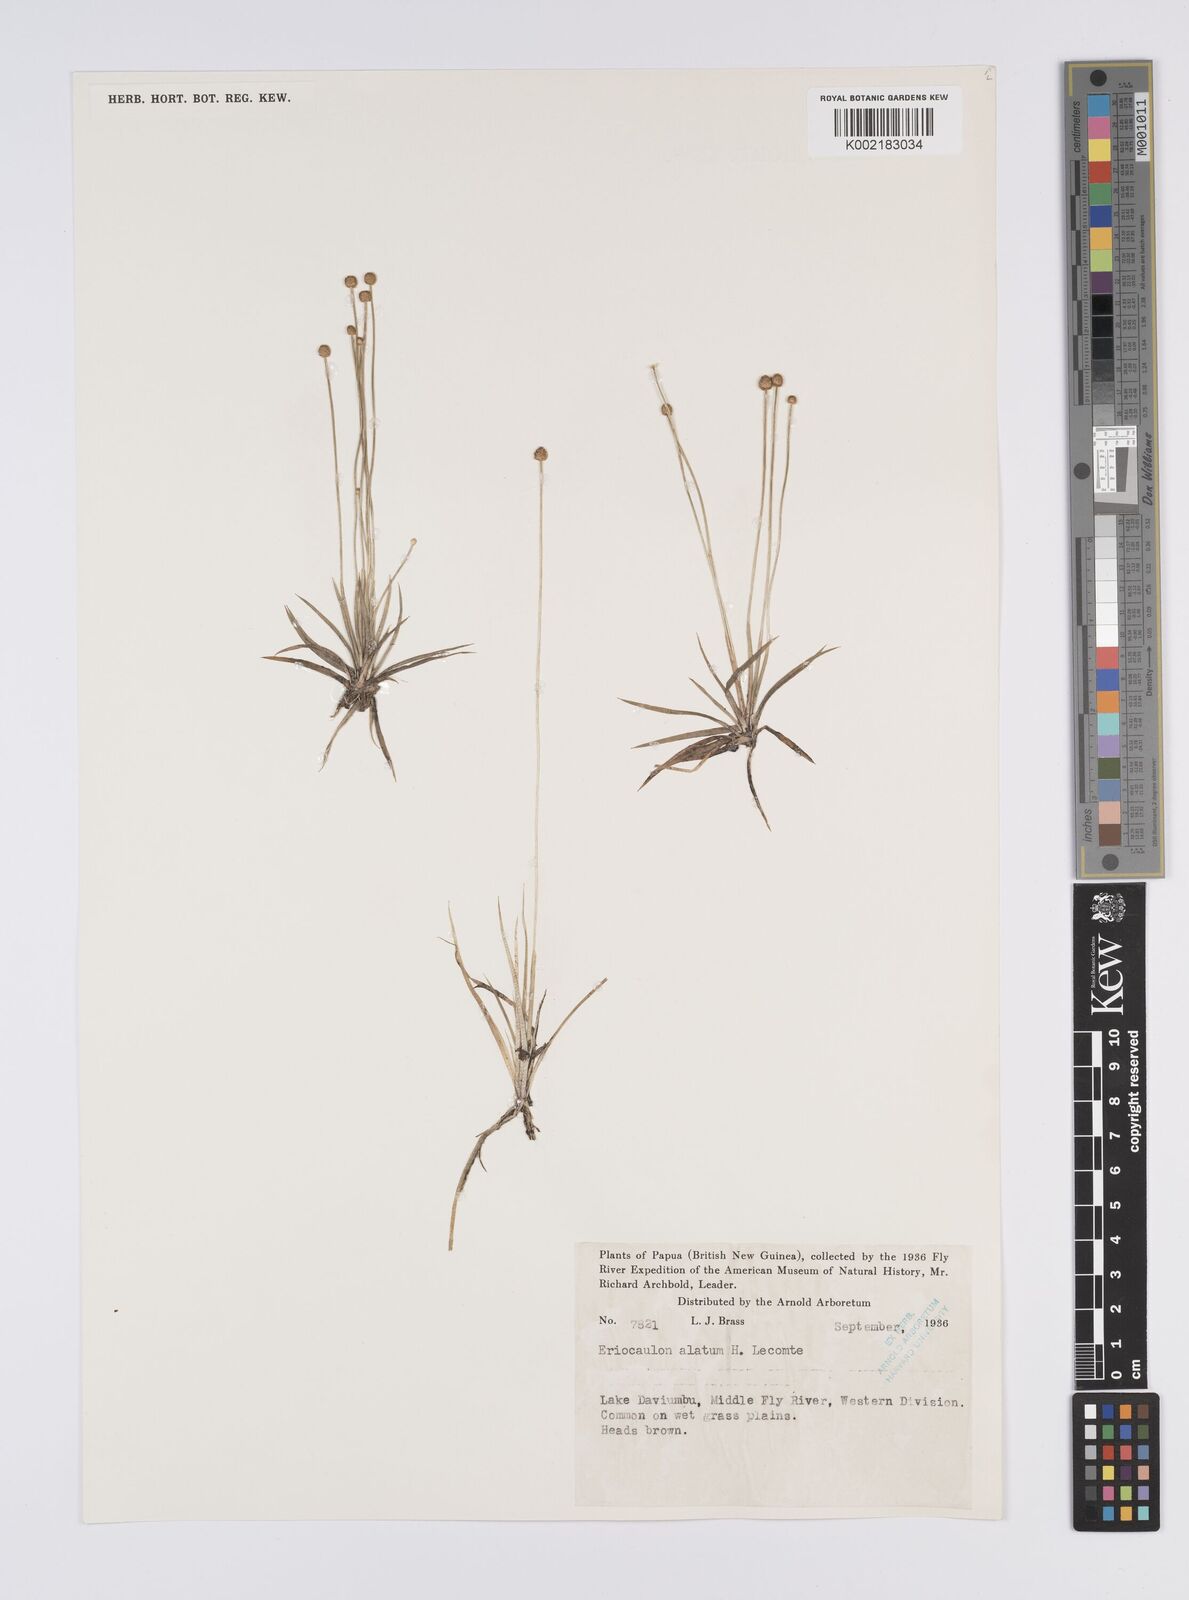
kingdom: Plantae
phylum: Tracheophyta
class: Liliopsida
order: Poales
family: Eriocaulaceae
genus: Eriocaulon
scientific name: Eriocaulon zollingerianum
